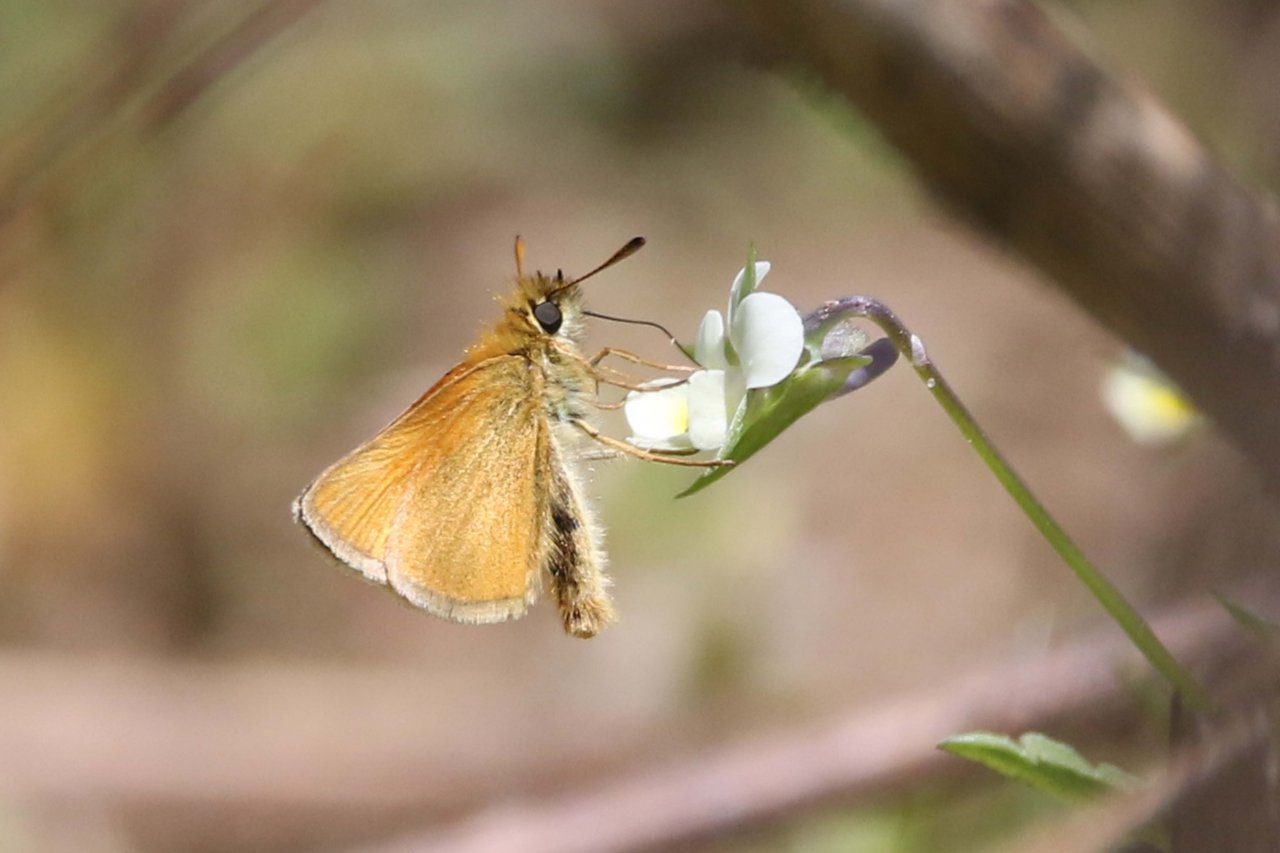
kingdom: Animalia
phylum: Arthropoda
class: Insecta
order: Lepidoptera
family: Hesperiidae
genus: Thymelicus
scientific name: Thymelicus lineola
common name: European Skipper
